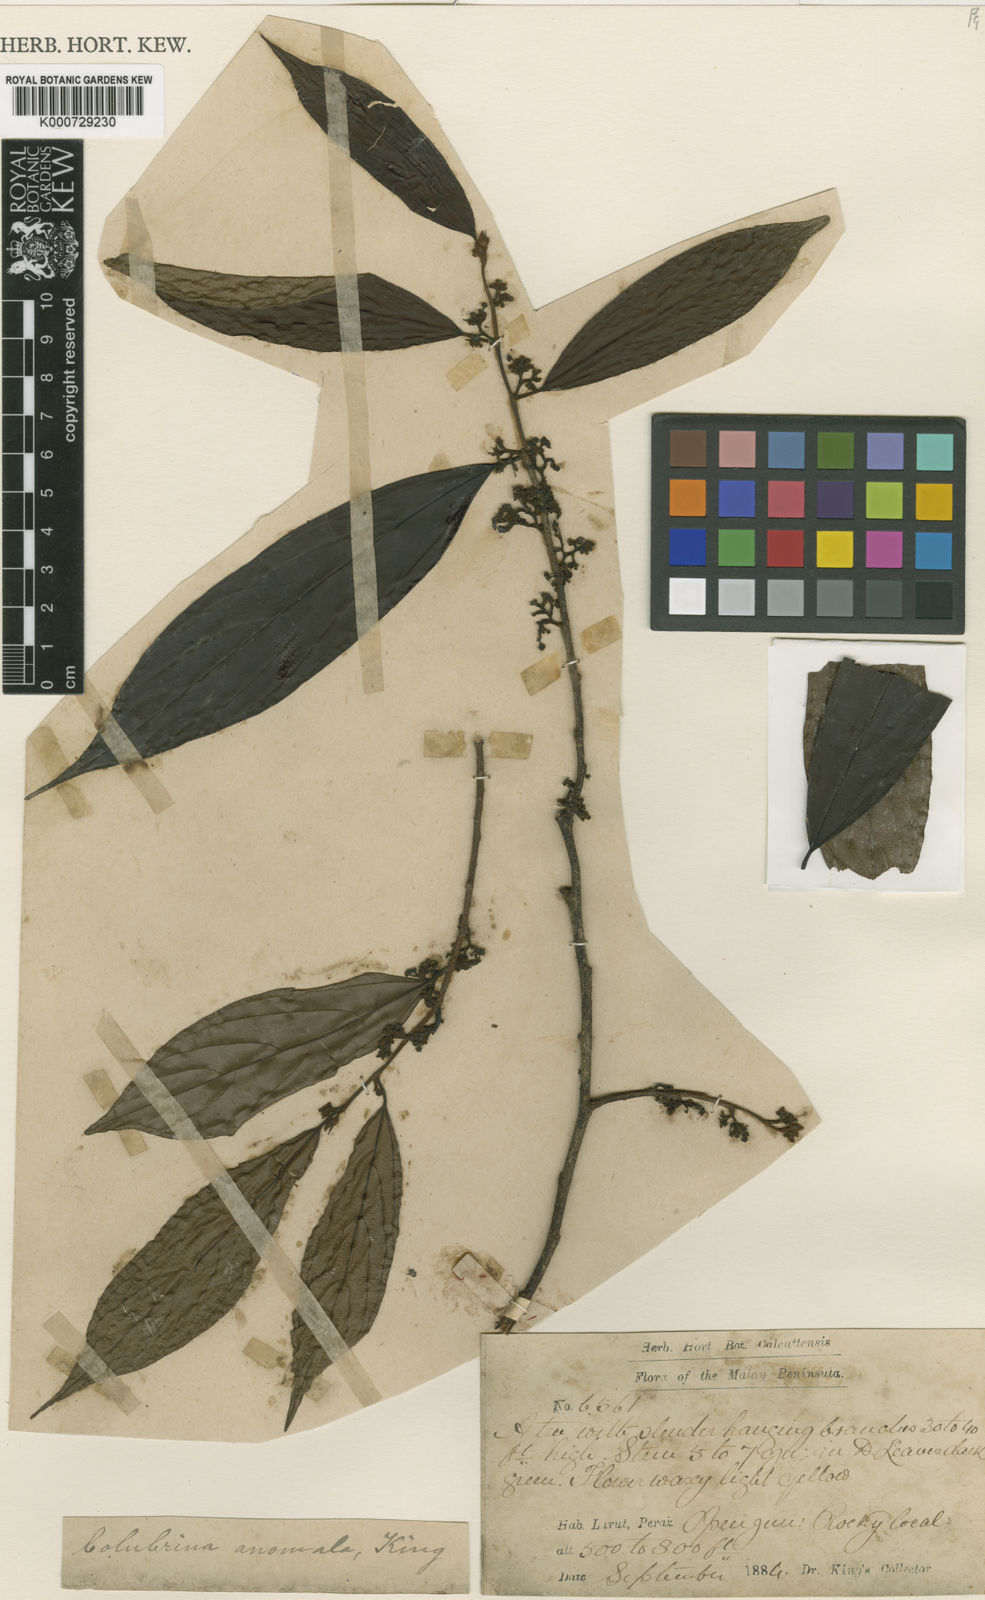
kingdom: Plantae
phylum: Tracheophyta
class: Magnoliopsida
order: Rosales
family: Rhamnaceae
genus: Colubrina
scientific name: Colubrina beccariana
